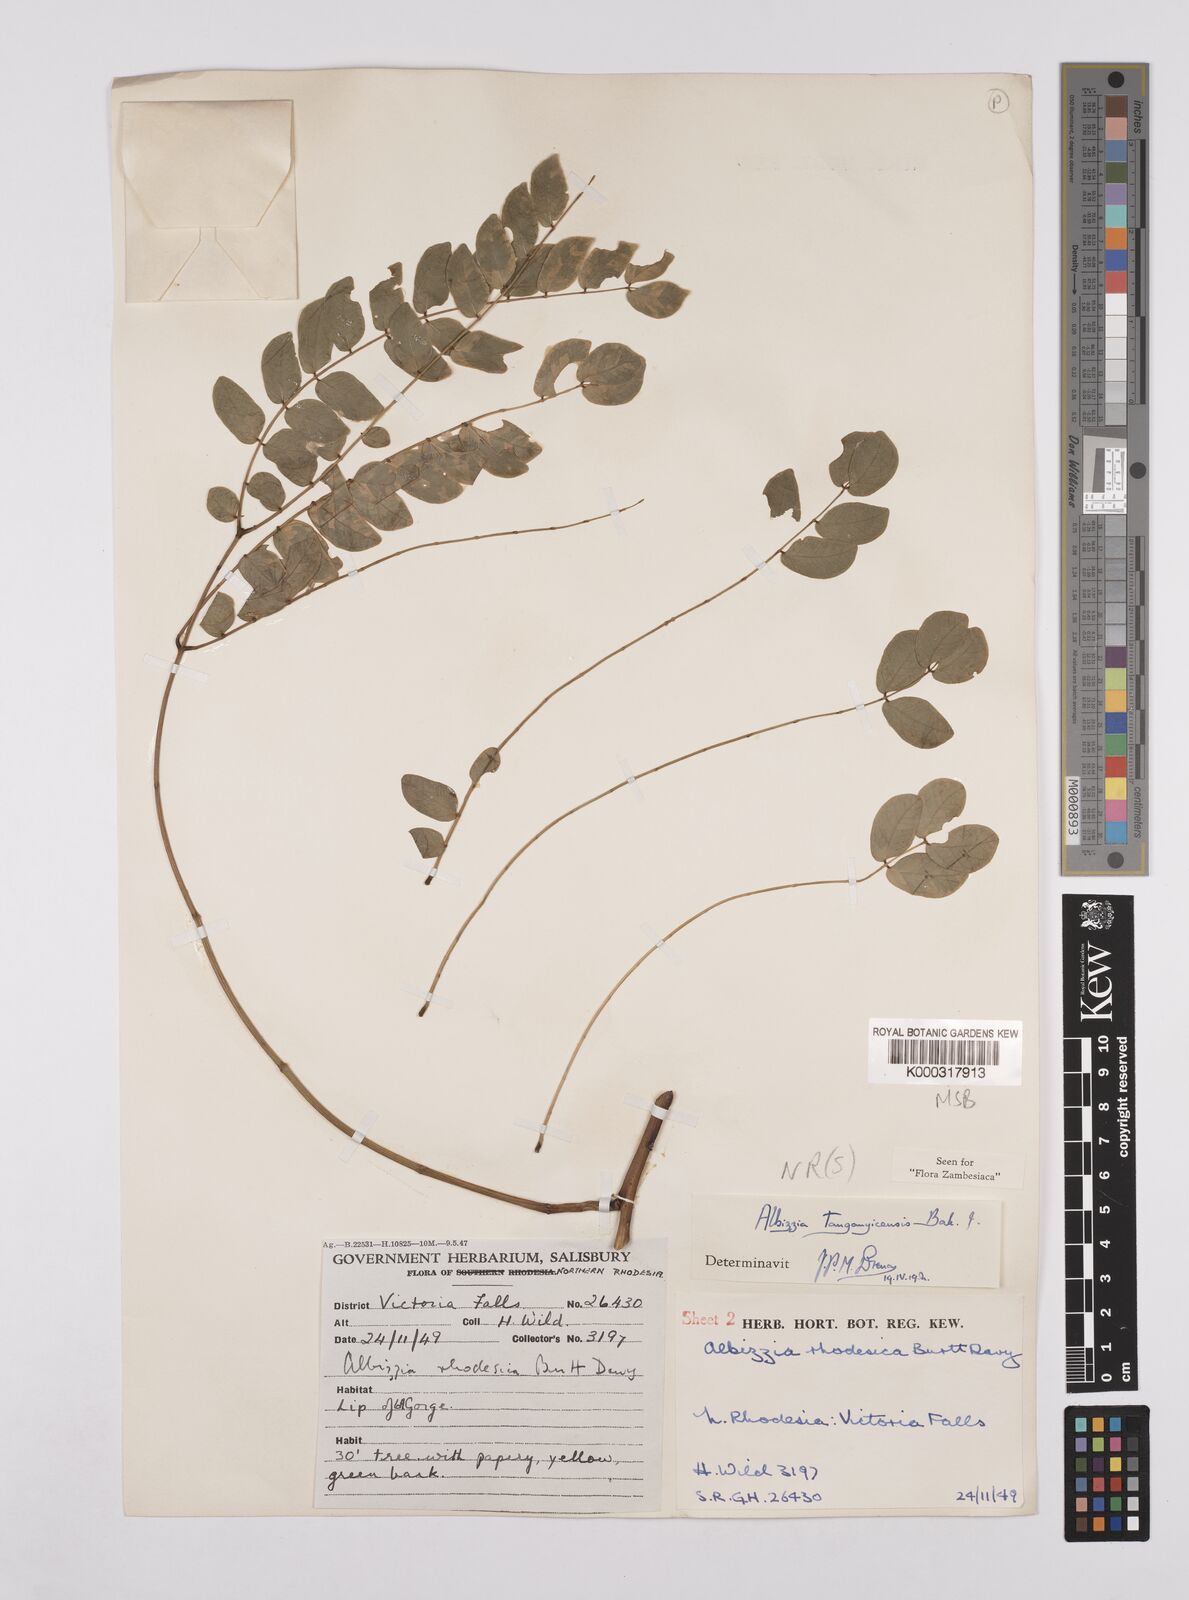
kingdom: Plantae
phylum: Tracheophyta
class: Magnoliopsida
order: Fabales
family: Fabaceae
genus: Albizia
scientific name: Albizia tanganyicensis
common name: Paperbark false thorn
